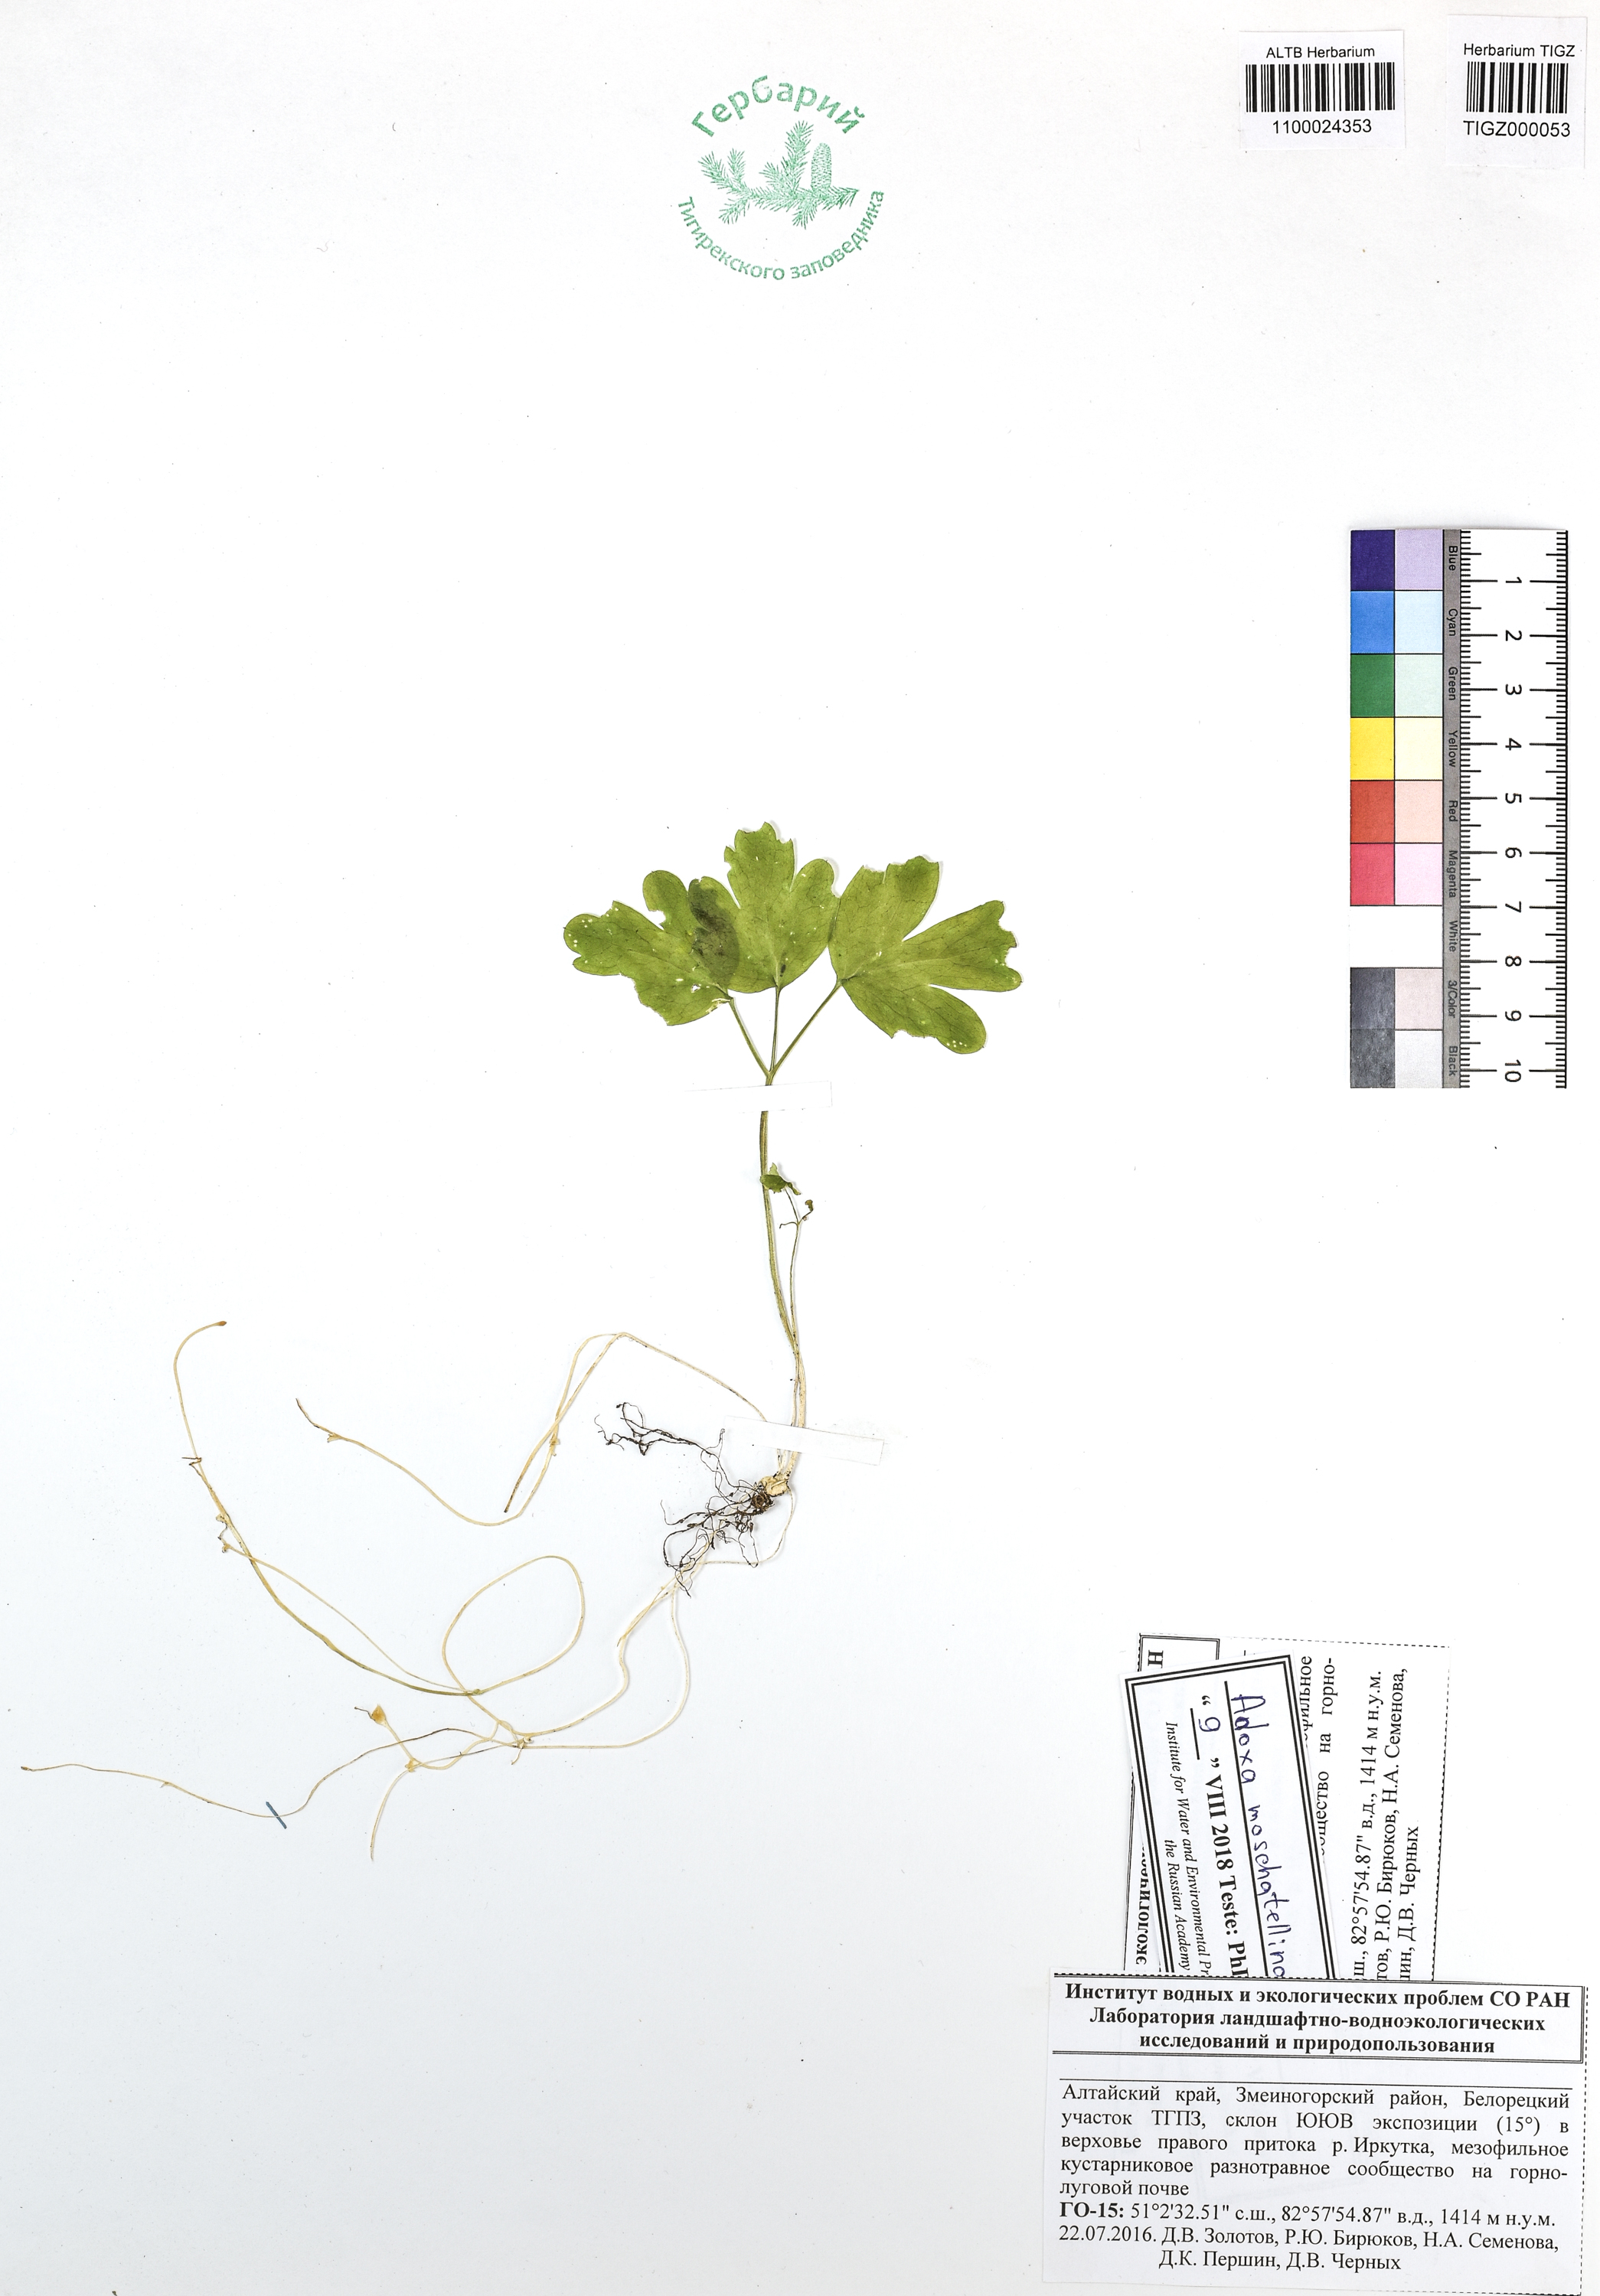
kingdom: Plantae
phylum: Tracheophyta
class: Magnoliopsida
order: Dipsacales
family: Viburnaceae
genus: Adoxa
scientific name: Adoxa moschatellina
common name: Moschatel
